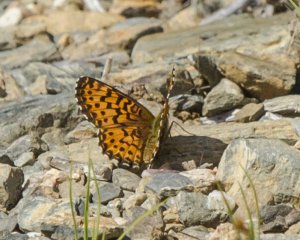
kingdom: Animalia
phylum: Arthropoda
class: Insecta
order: Lepidoptera
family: Nymphalidae
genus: Boloria
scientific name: Boloria chariclea
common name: Arctic Fritillary
